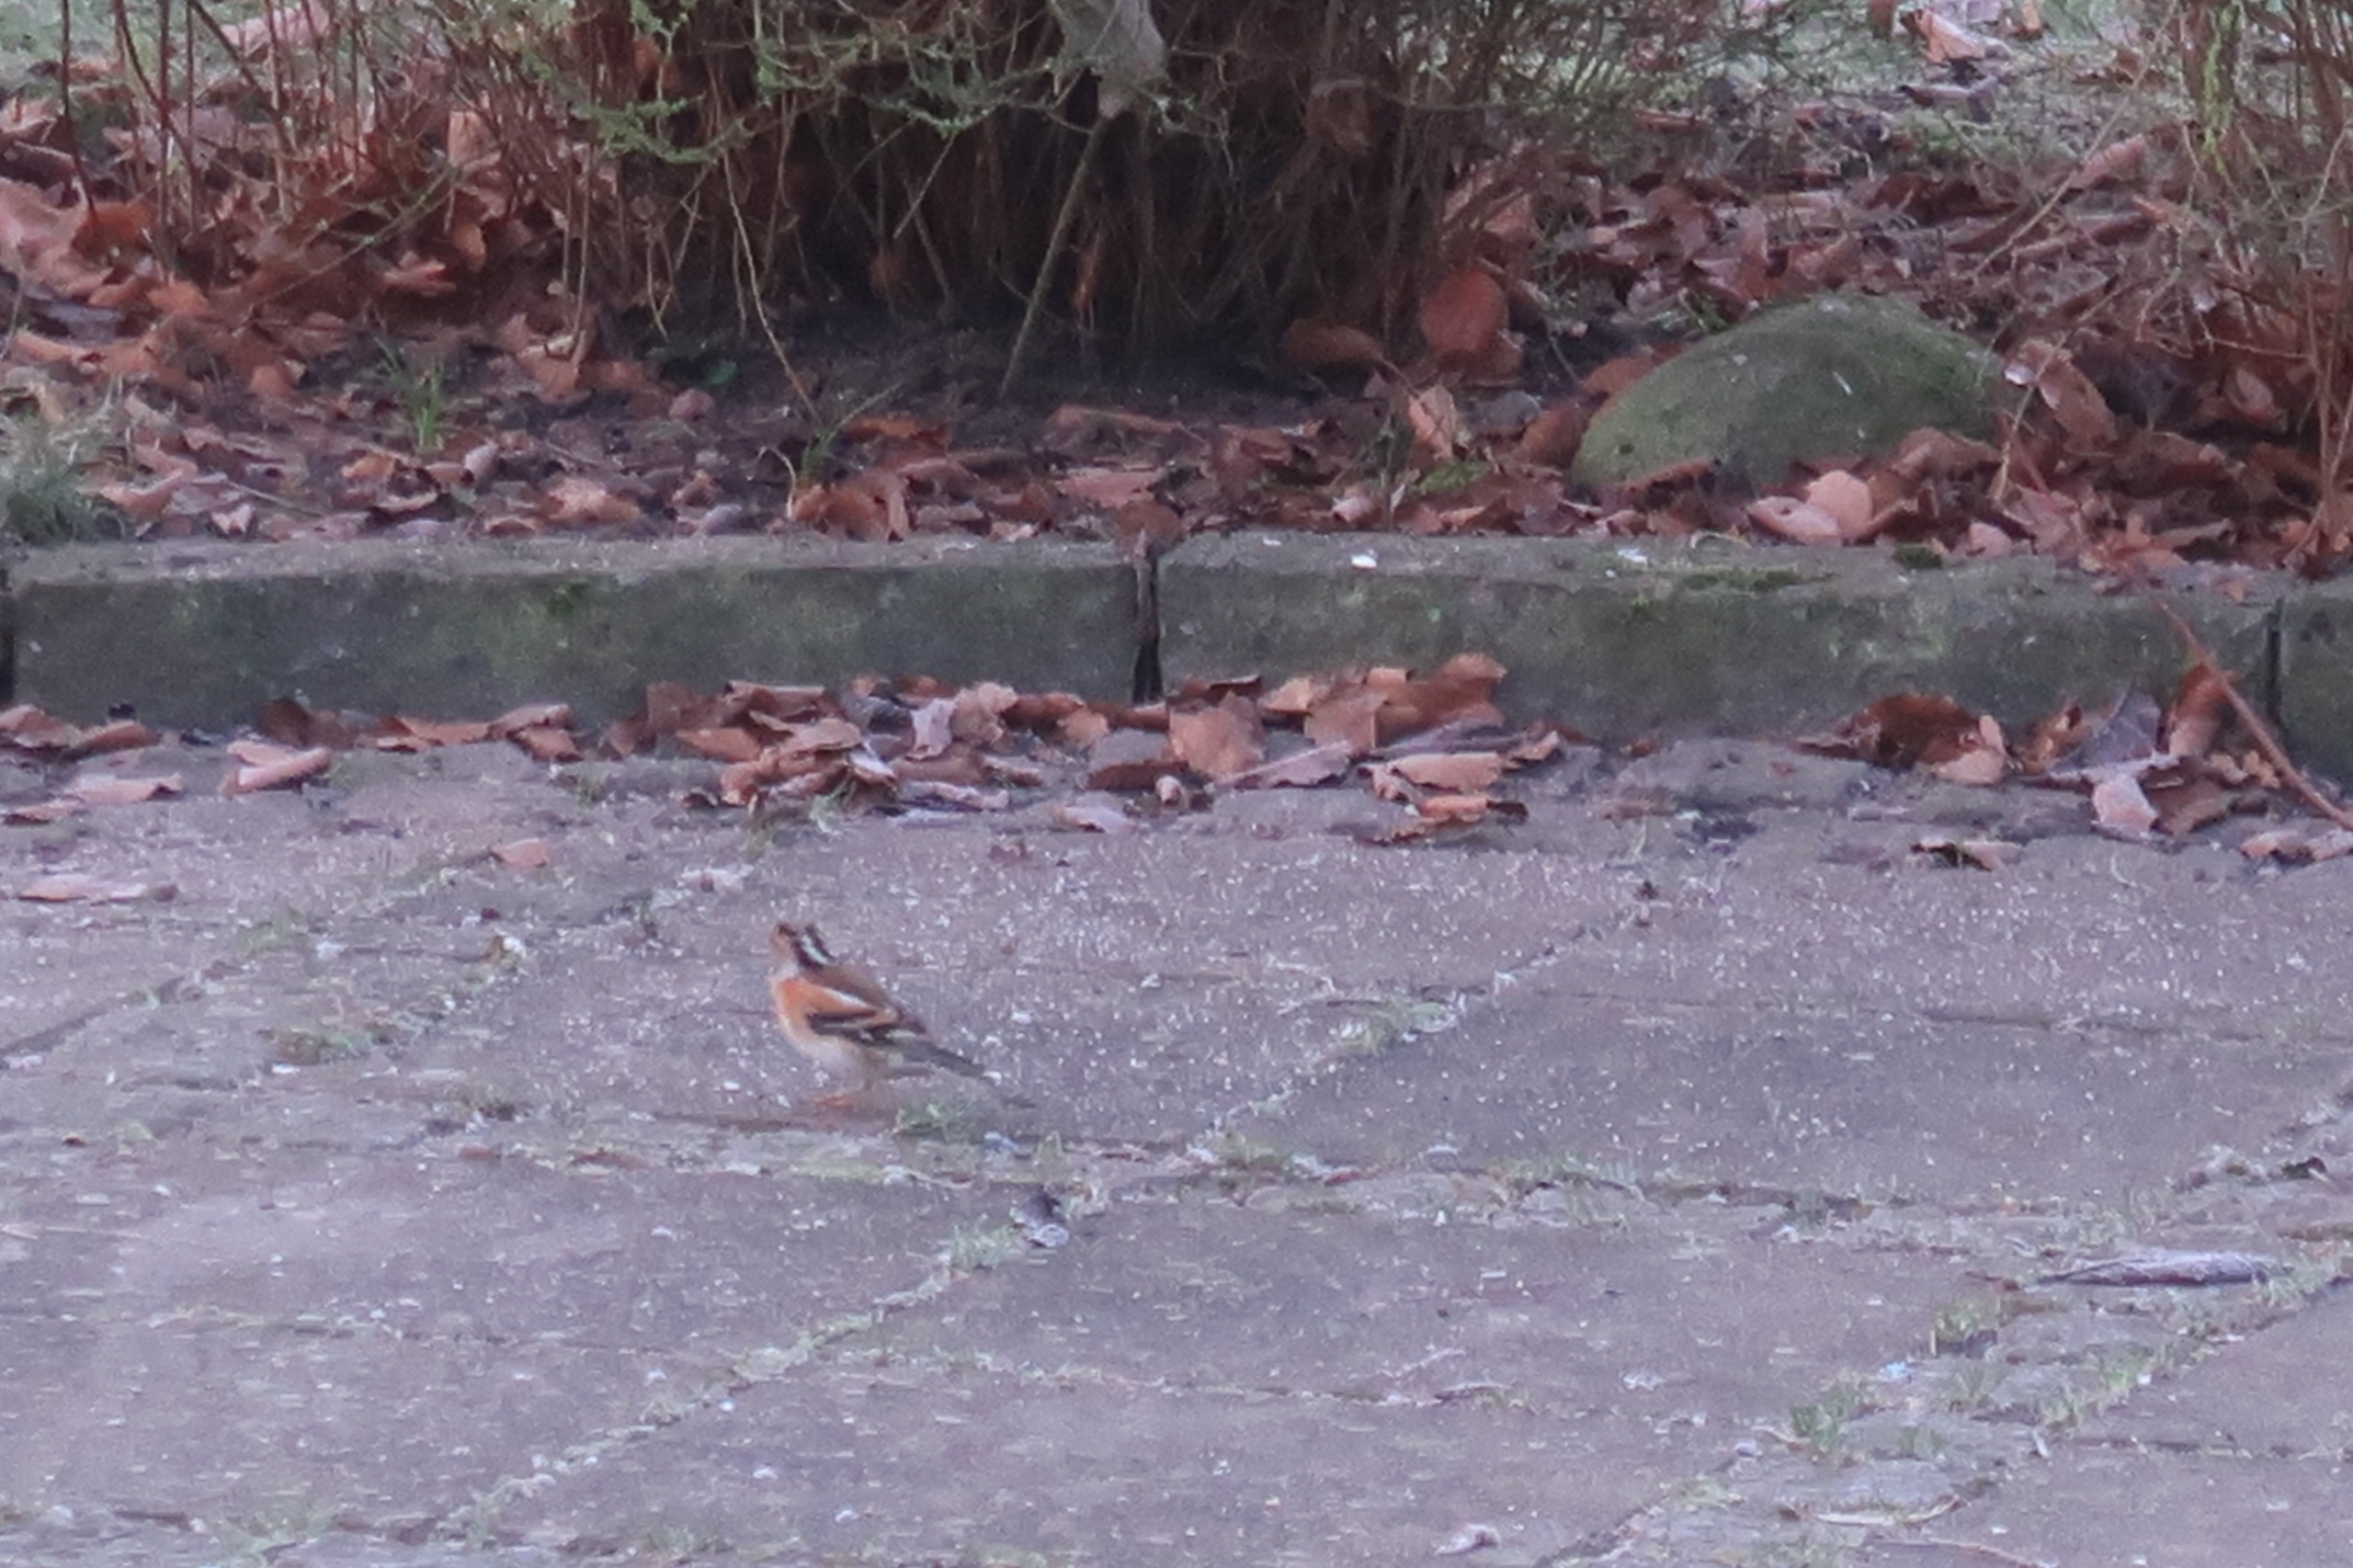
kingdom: Animalia
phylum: Chordata
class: Aves
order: Passeriformes
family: Fringillidae
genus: Fringilla
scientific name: Fringilla montifringilla
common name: Kvækerfinke
